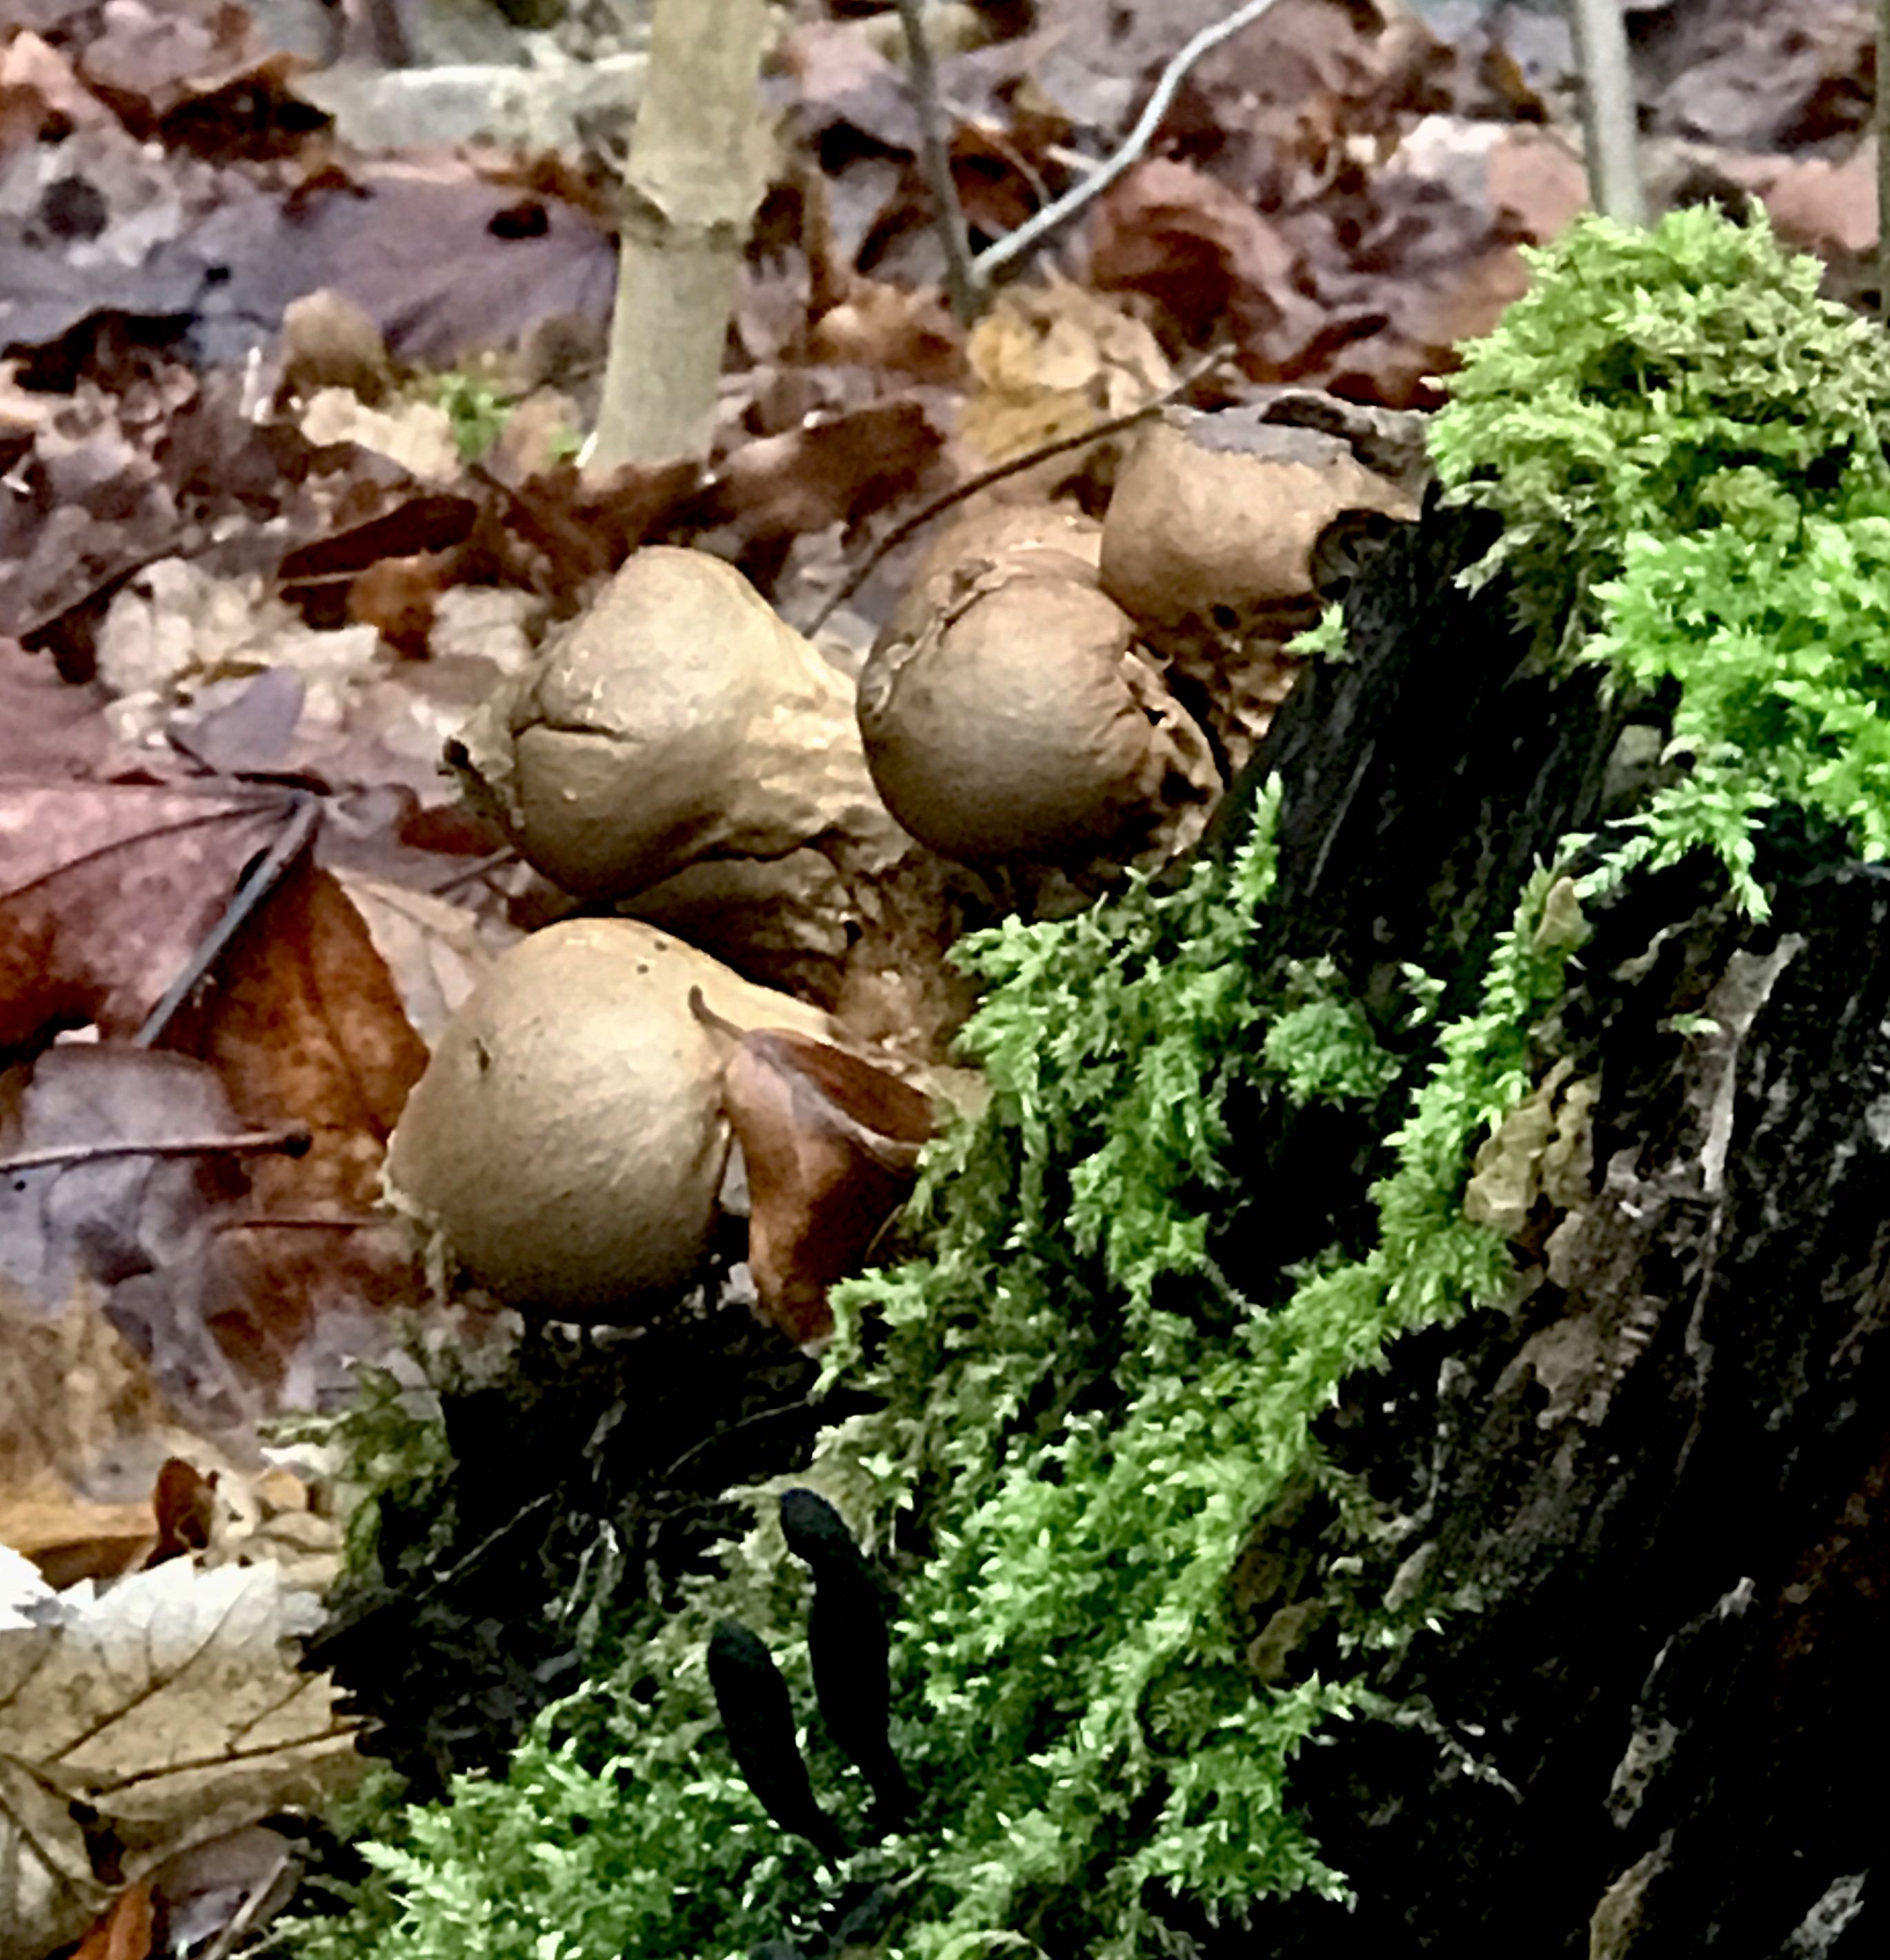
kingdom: Fungi
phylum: Basidiomycota
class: Agaricomycetes
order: Agaricales
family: Lycoperdaceae
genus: Apioperdon
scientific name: Apioperdon pyriforme
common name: pære-støvbold
